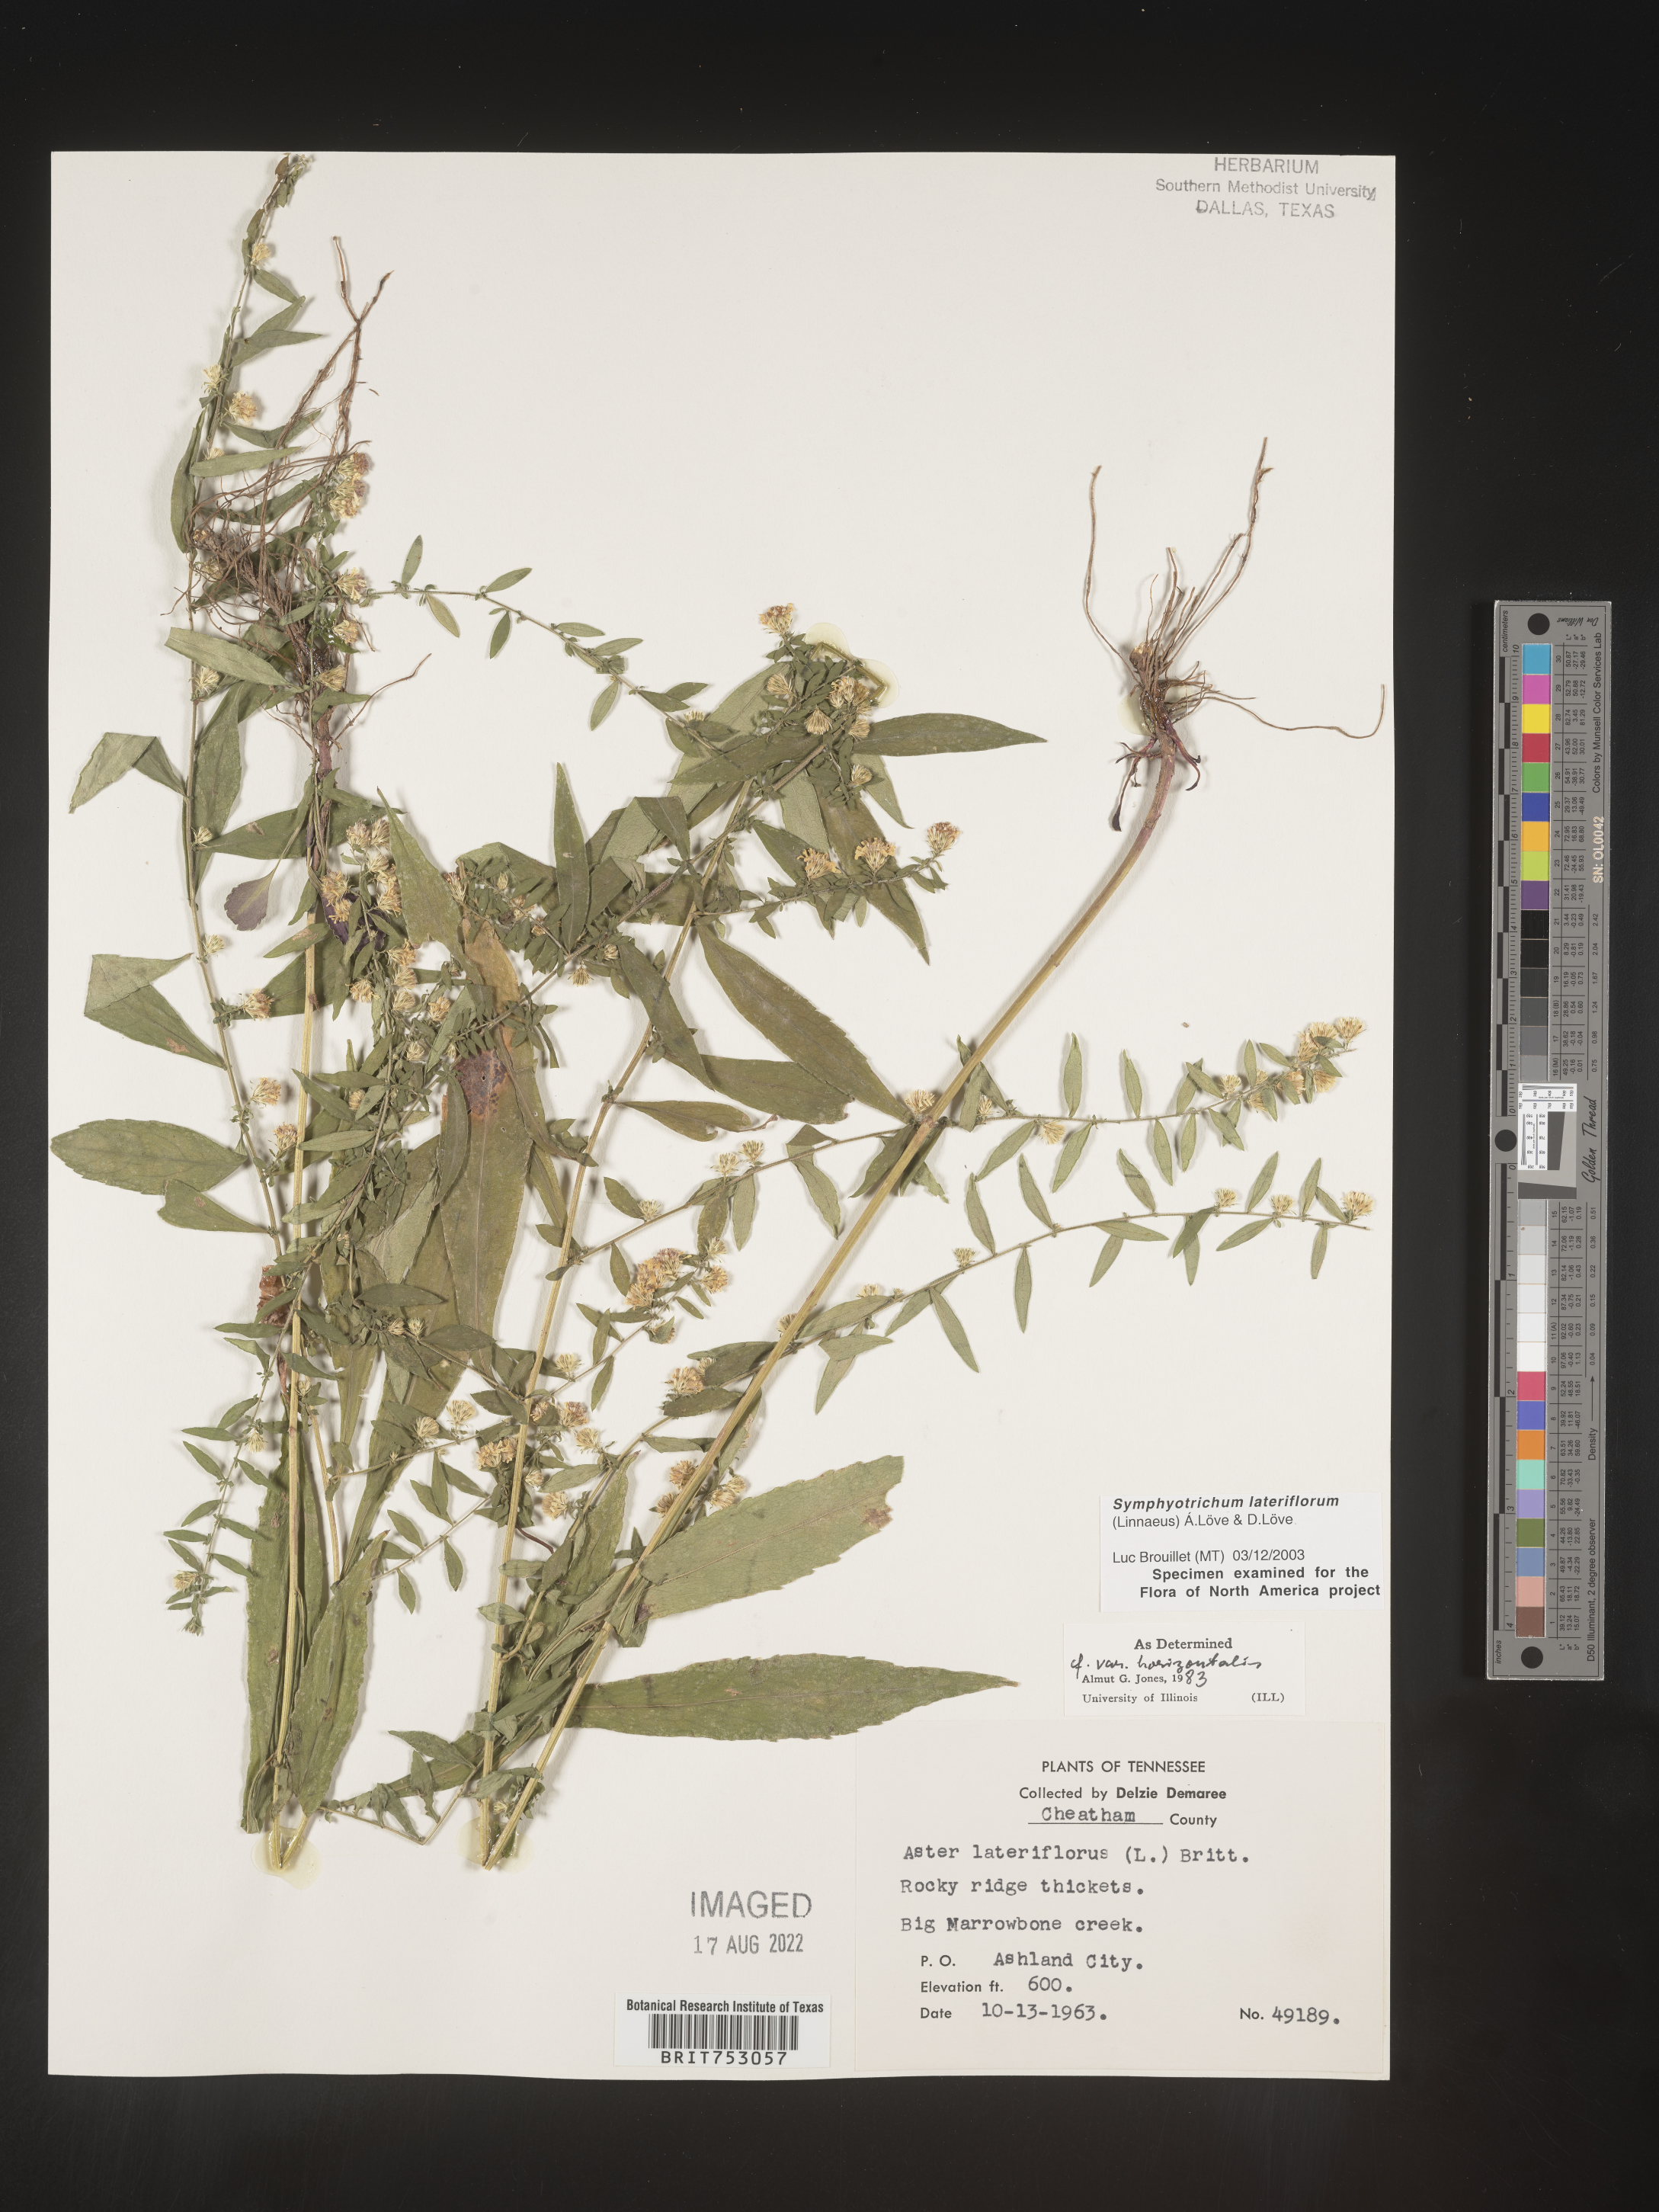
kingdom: Plantae
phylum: Tracheophyta
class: Magnoliopsida
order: Asterales
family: Asteraceae
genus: Symphyotrichum
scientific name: Symphyotrichum lateriflorum
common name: Calico aster
